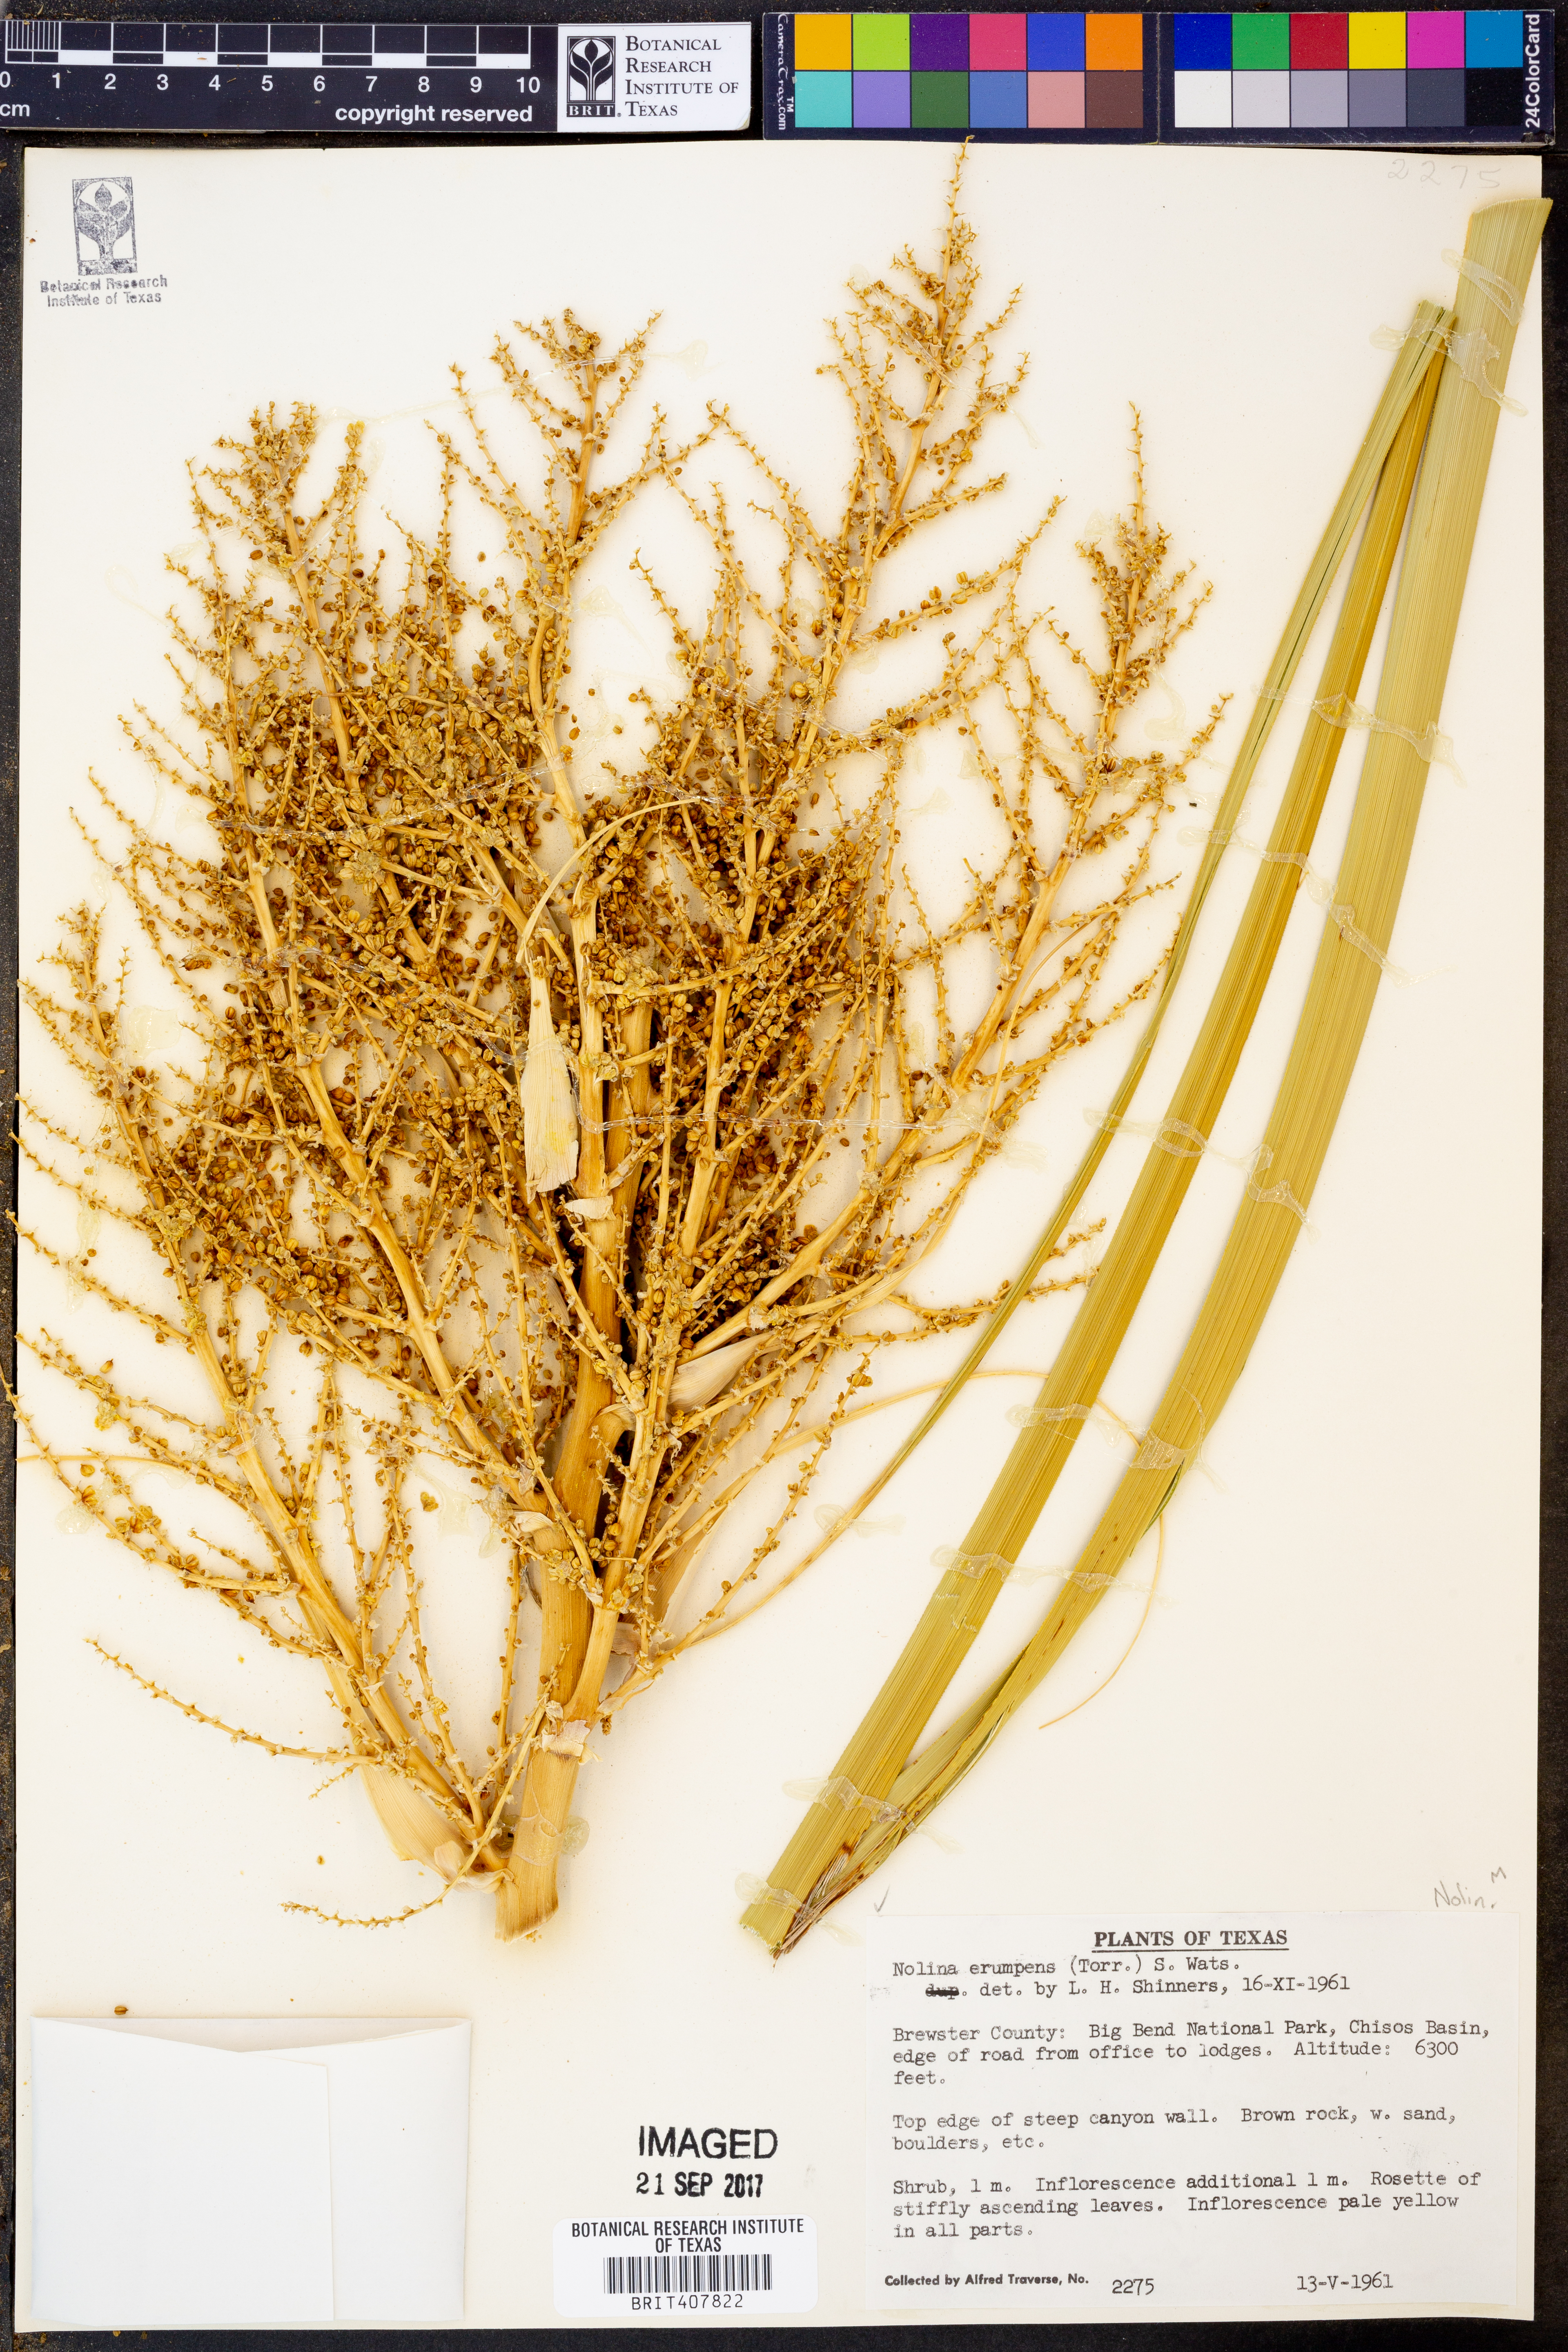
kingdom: Plantae
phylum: Tracheophyta
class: Liliopsida
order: Asparagales
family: Asparagaceae
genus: Nolina
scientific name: Nolina erumpens
